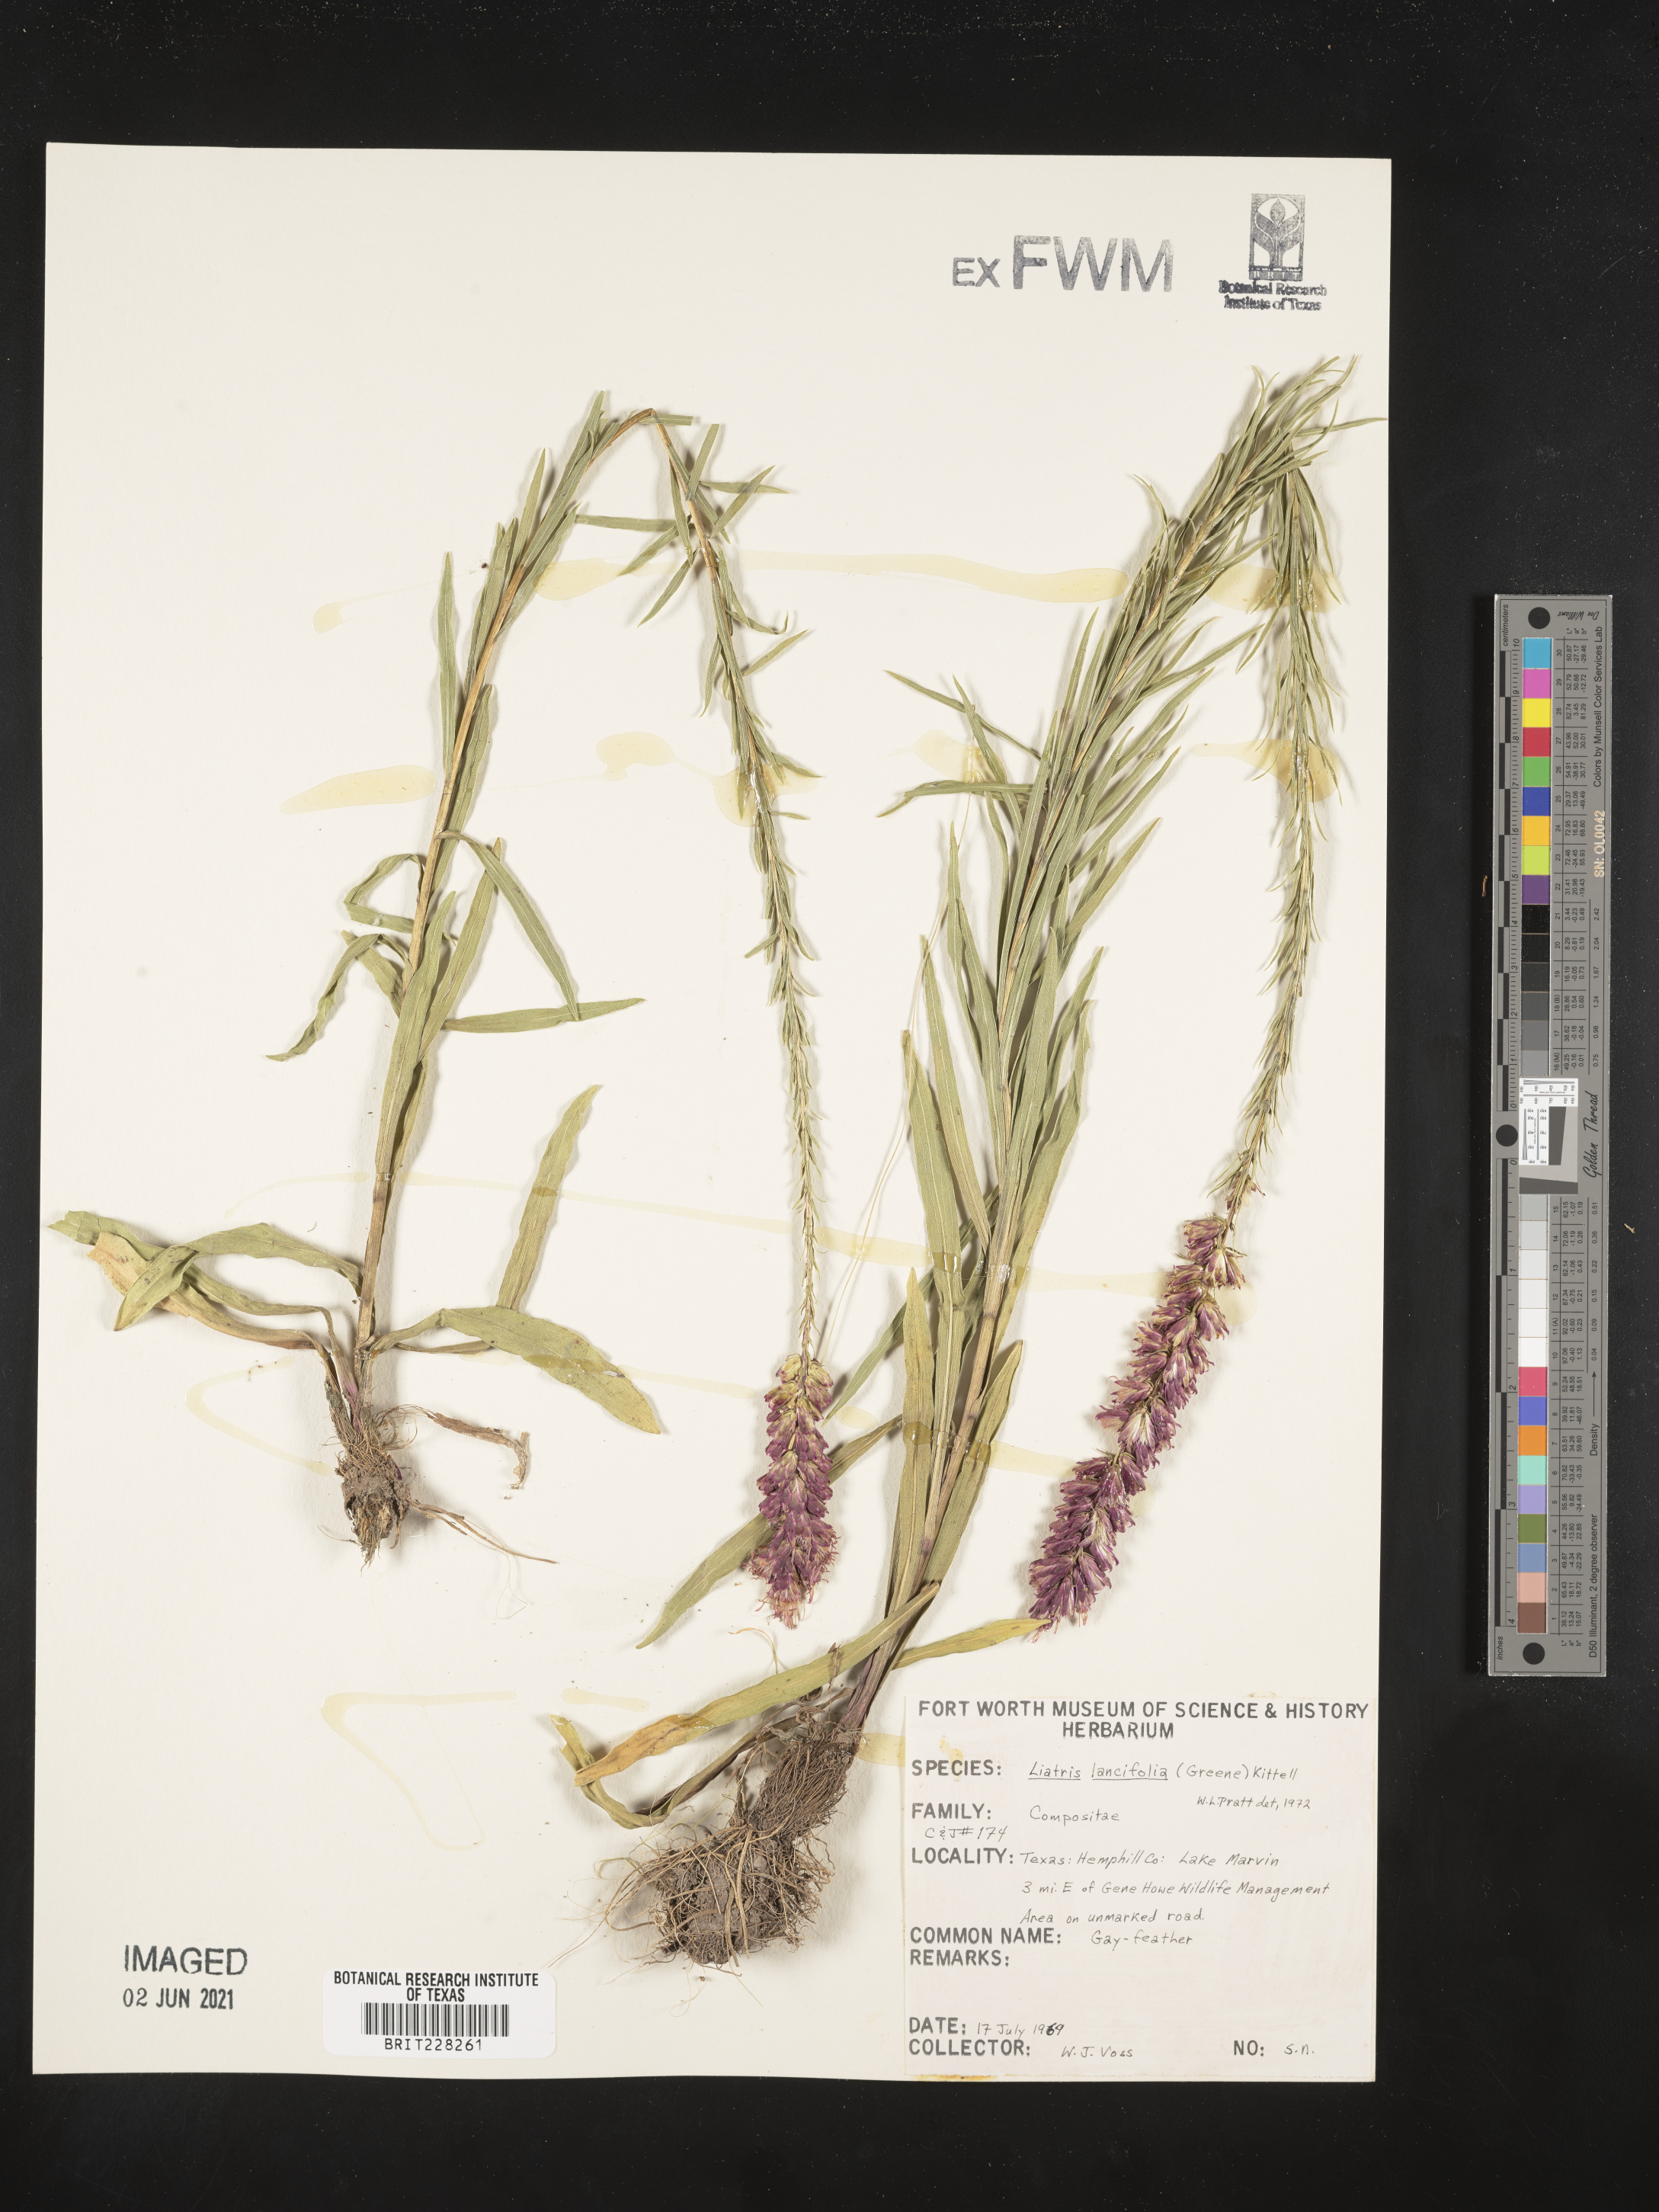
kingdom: Plantae
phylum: Tracheophyta
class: Magnoliopsida
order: Asterales
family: Asteraceae
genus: Liatris
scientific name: Liatris lancifolia
